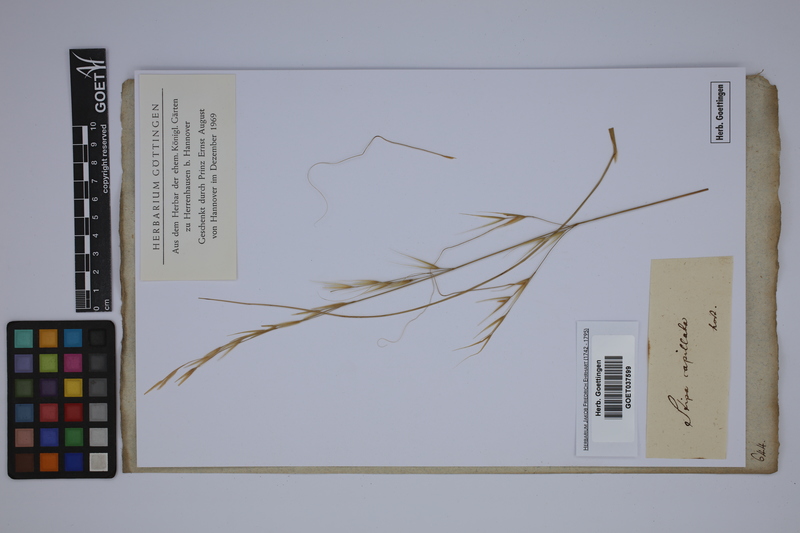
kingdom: Plantae
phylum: Tracheophyta
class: Liliopsida
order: Poales
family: Poaceae
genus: Stipa
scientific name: Stipa capillata
